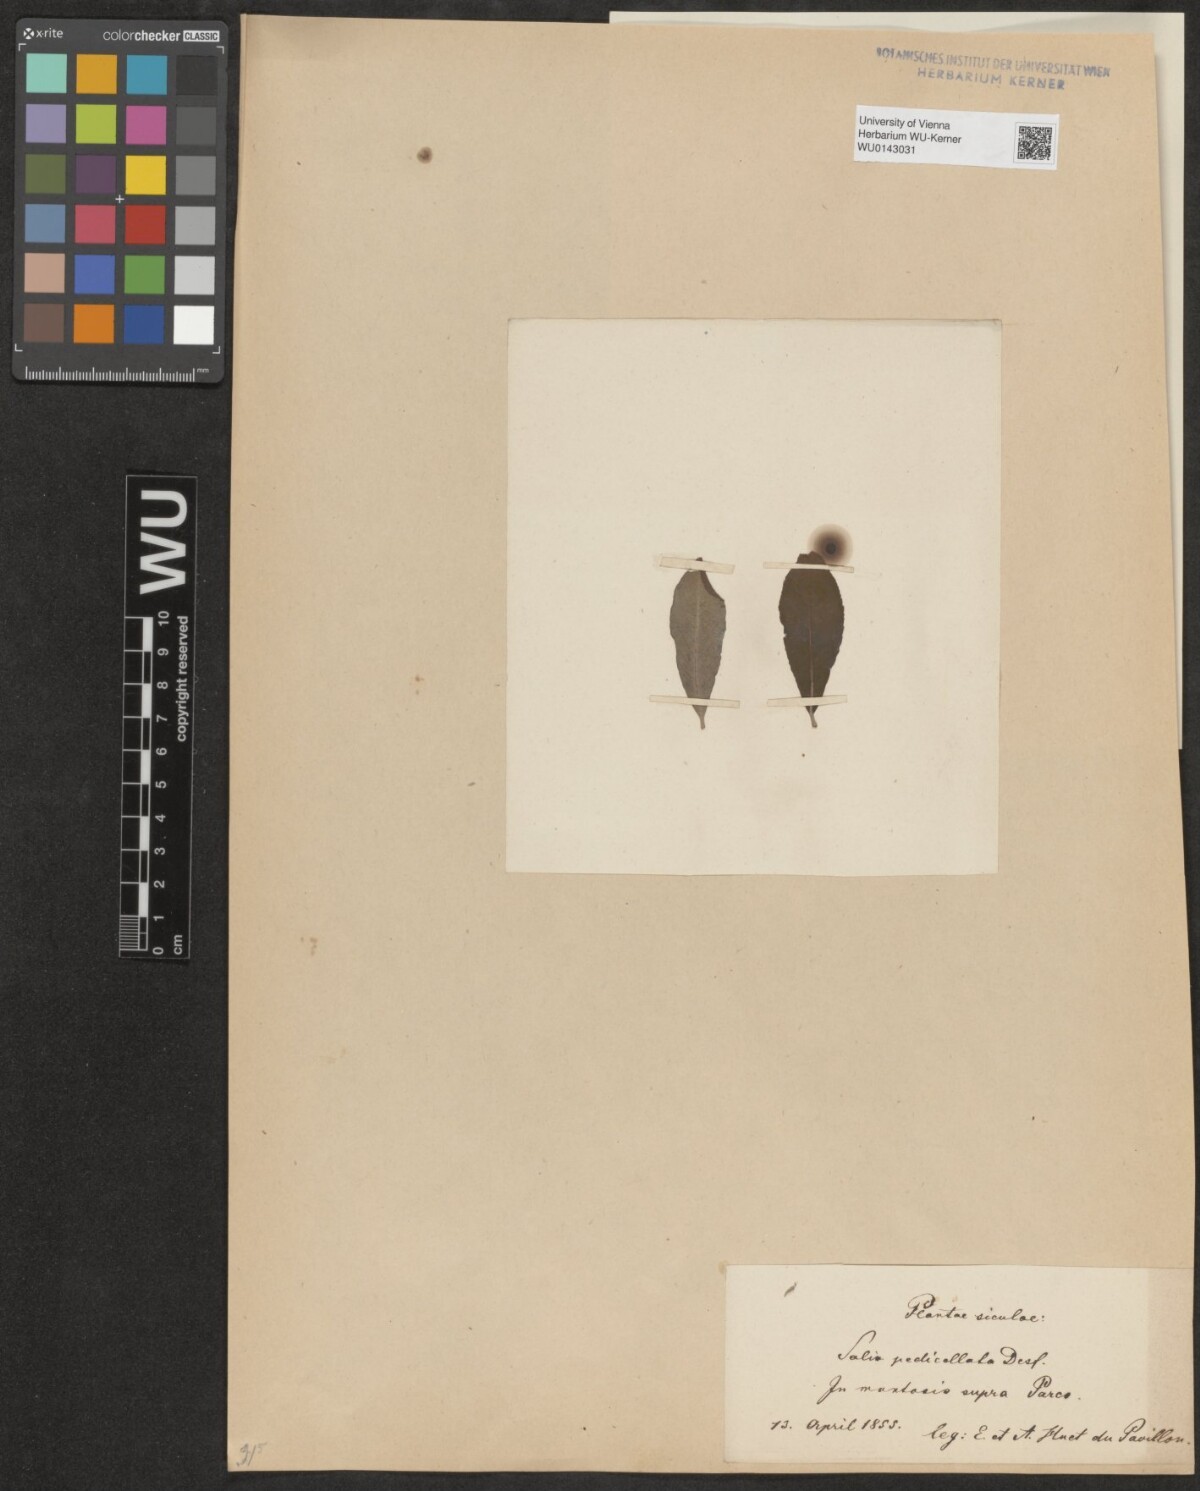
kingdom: Plantae
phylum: Tracheophyta
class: Magnoliopsida
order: Malpighiales
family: Salicaceae
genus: Salix
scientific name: Salix pedicellata
